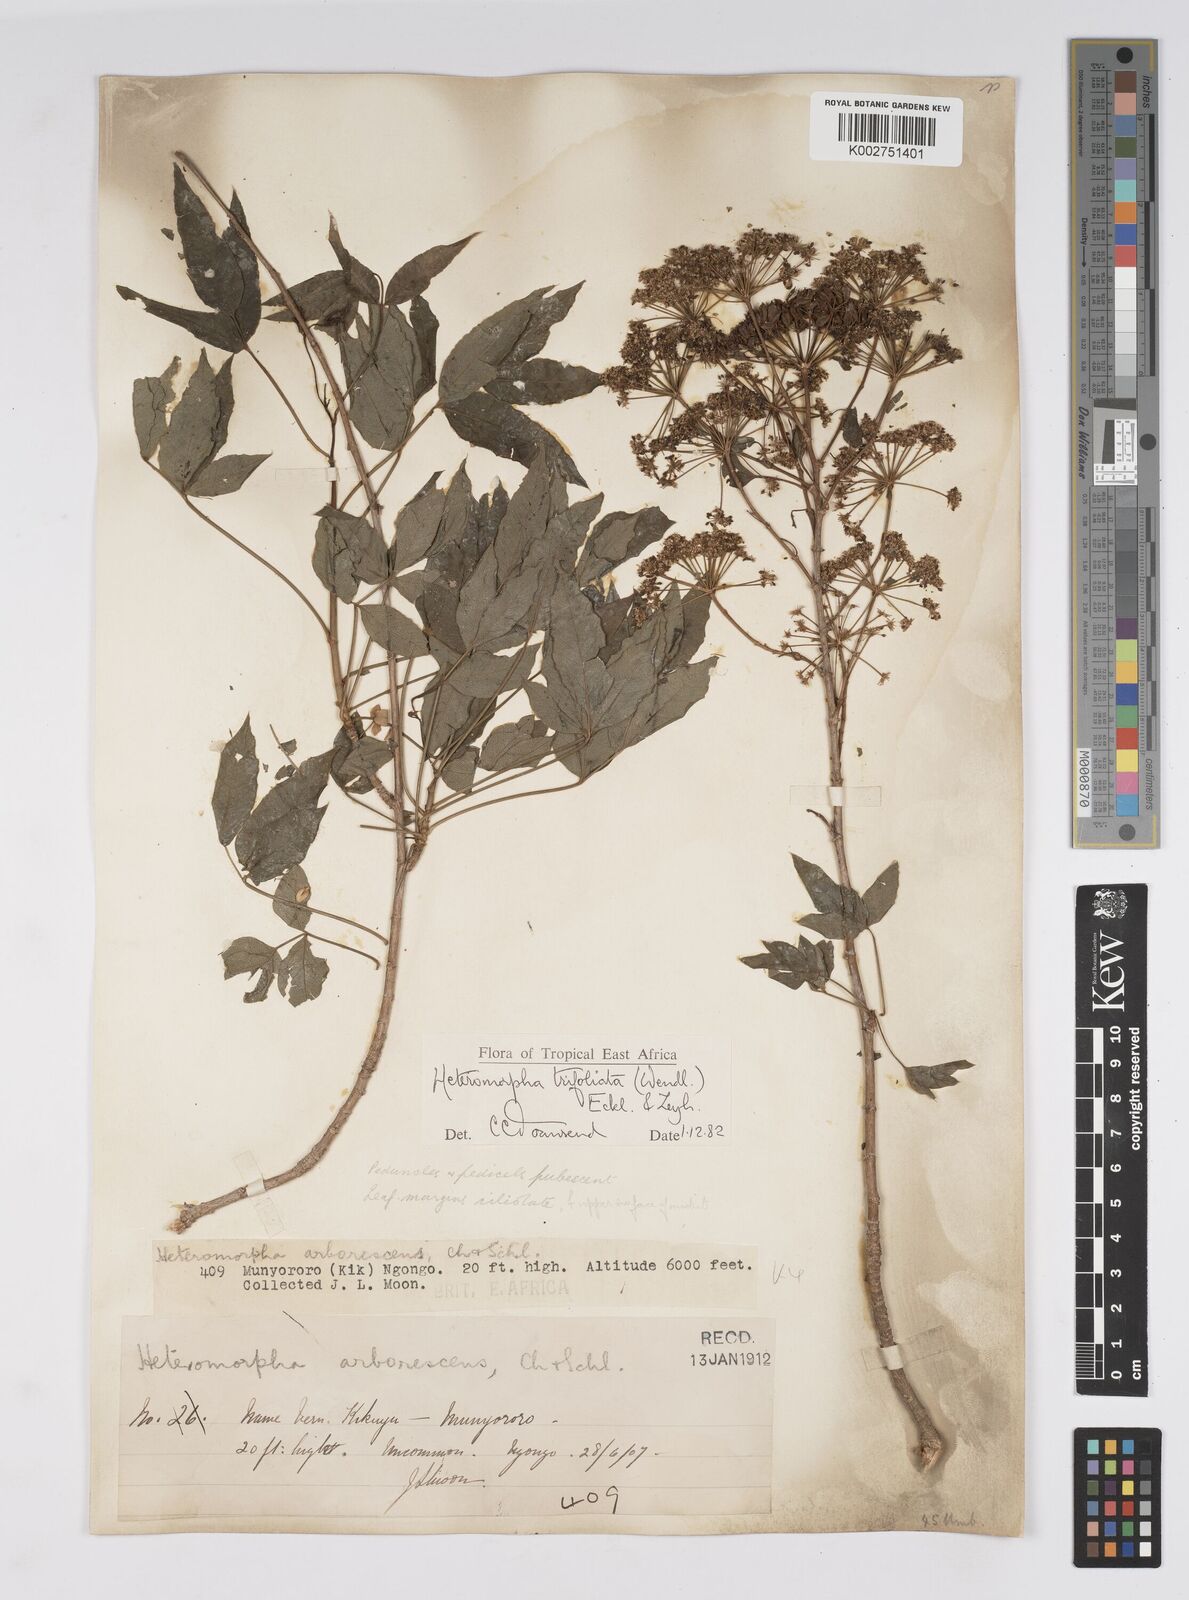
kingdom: Plantae
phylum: Tracheophyta
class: Magnoliopsida
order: Apiales
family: Apiaceae
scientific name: Apiaceae
